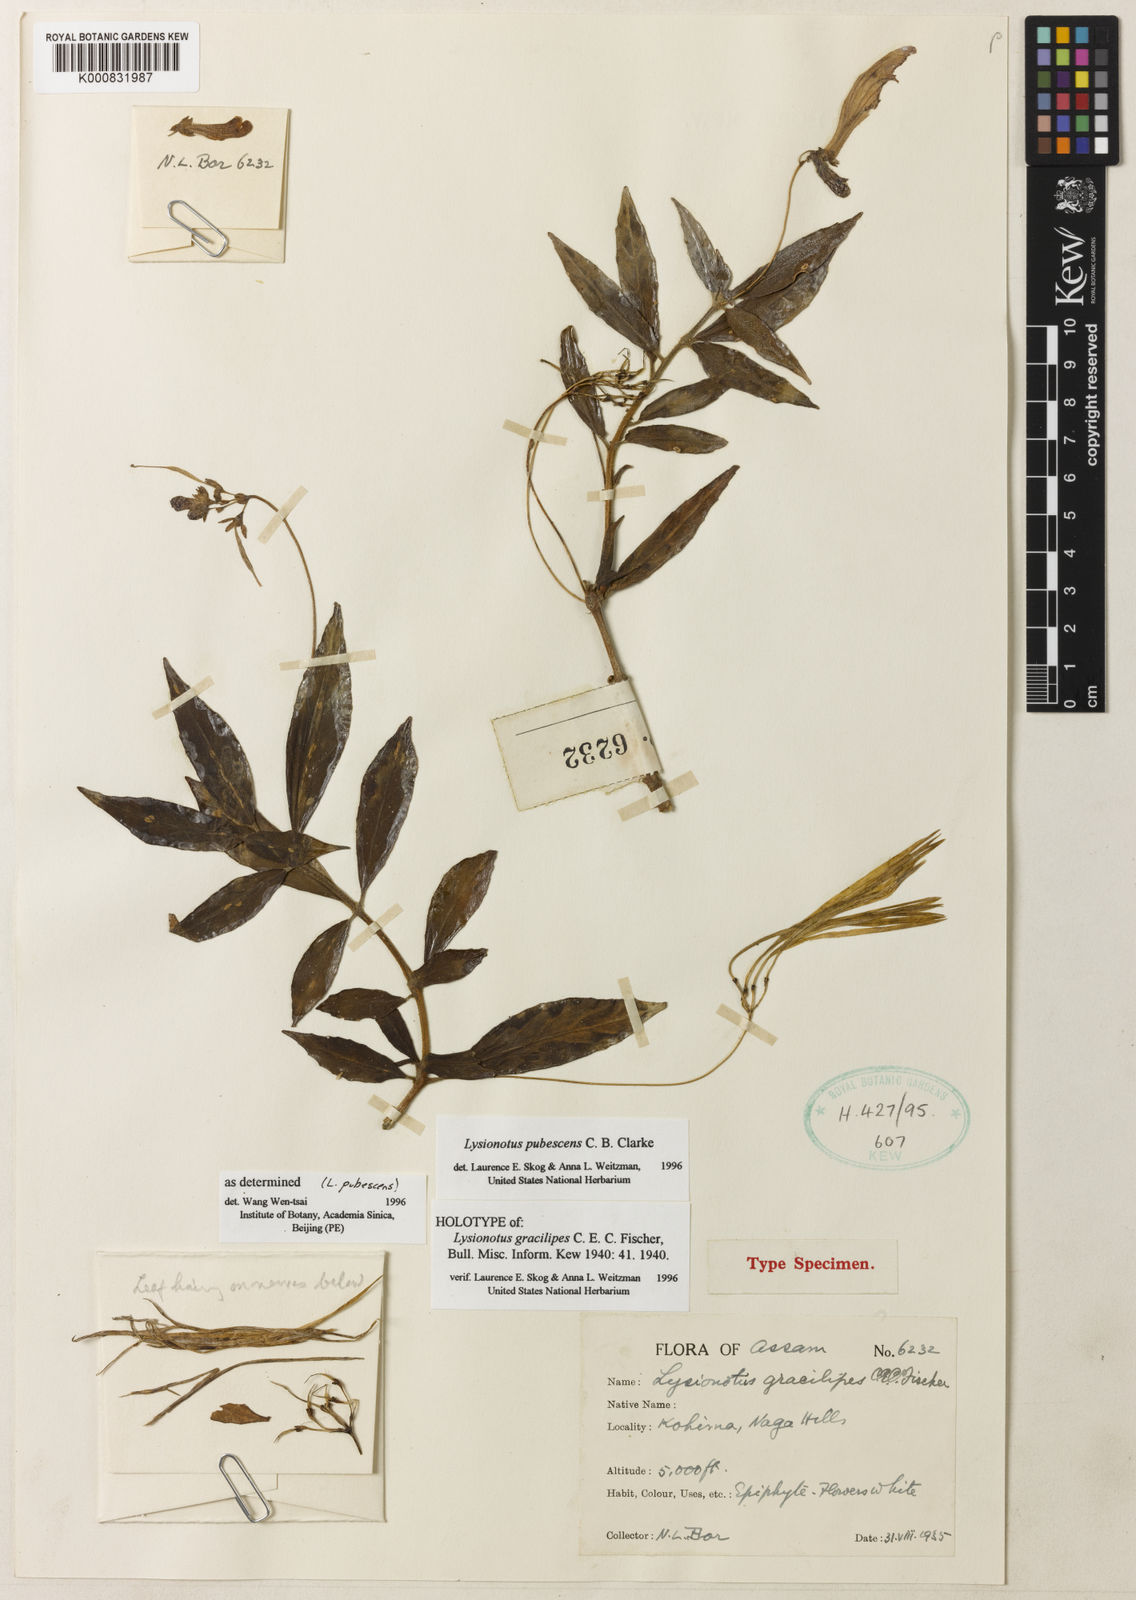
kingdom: Plantae
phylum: Tracheophyta
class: Magnoliopsida
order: Lamiales
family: Gesneriaceae
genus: Lysionotus
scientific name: Lysionotus pubescens
